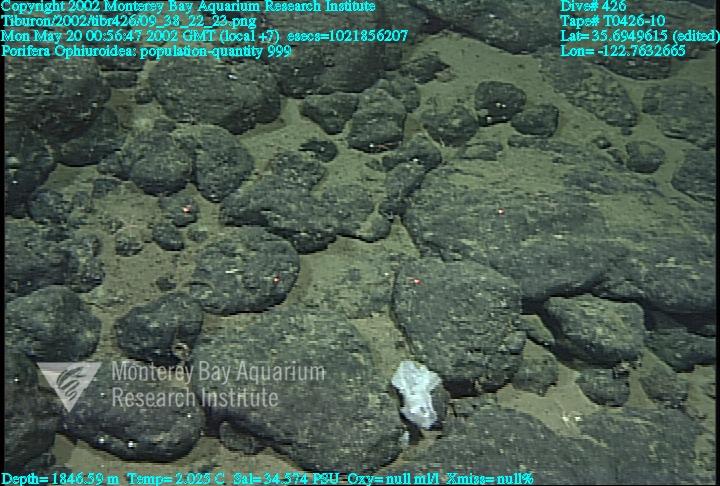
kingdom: Animalia
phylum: Porifera
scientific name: Porifera
